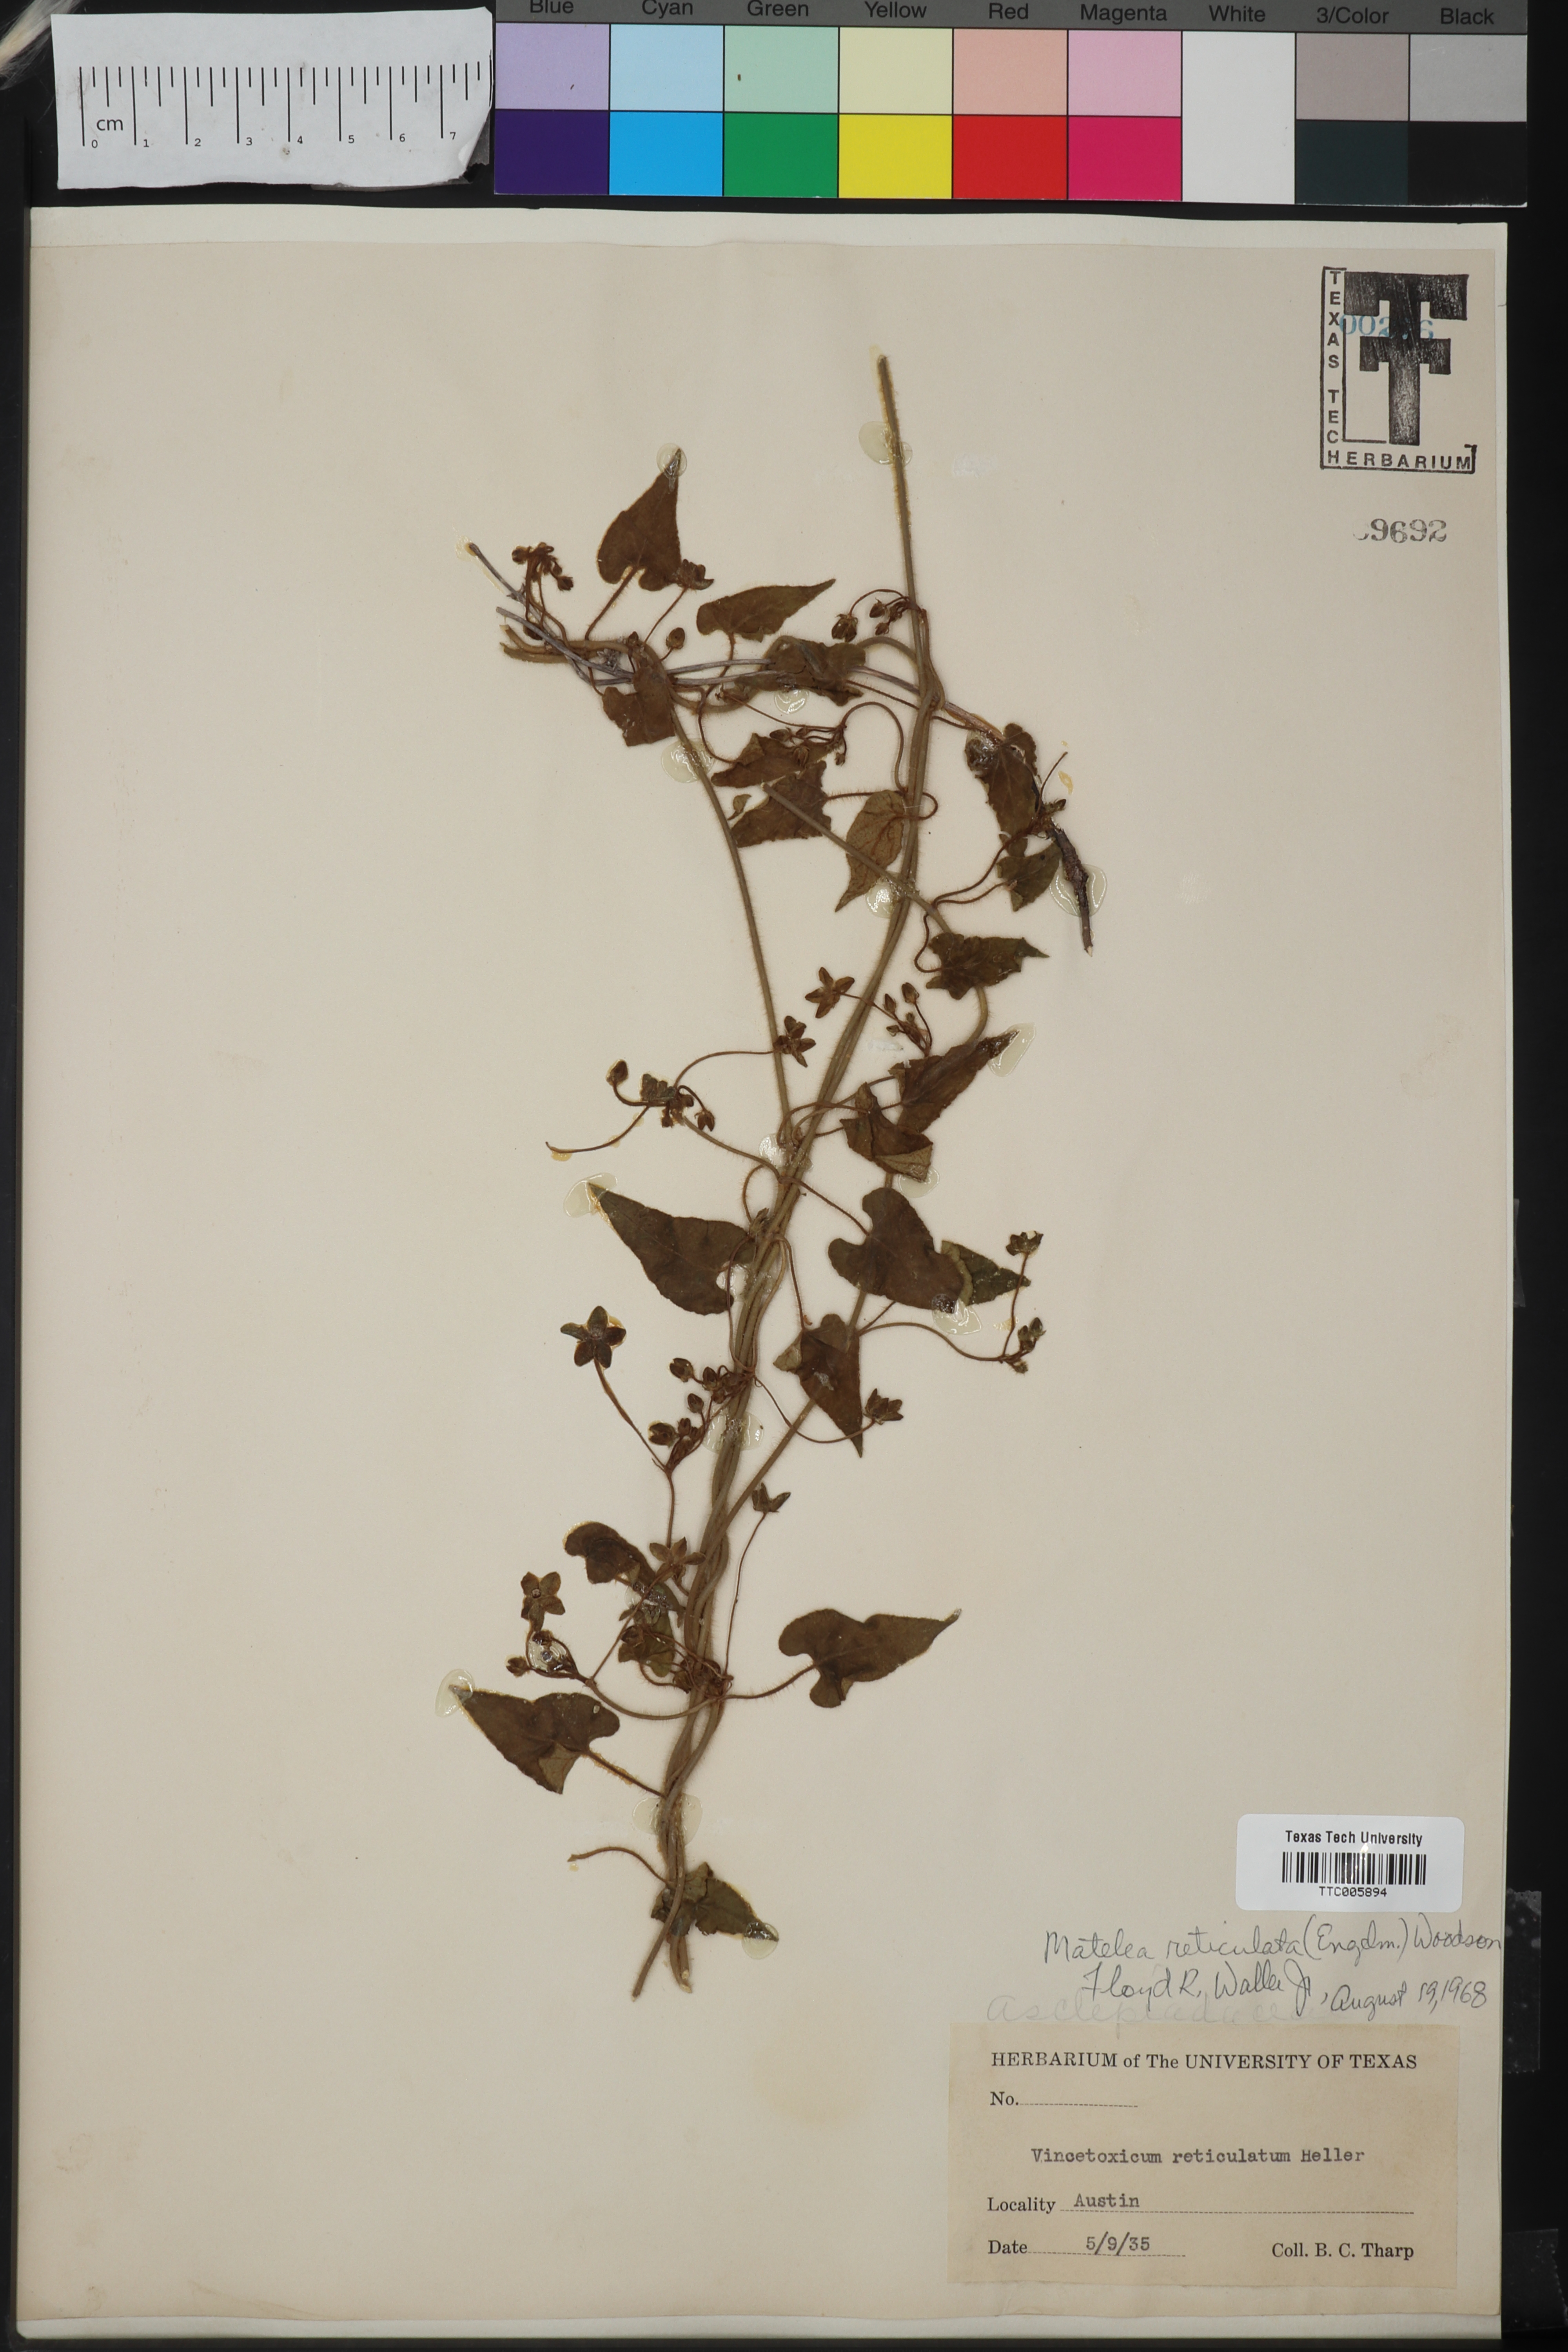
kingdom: Plantae
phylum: Tracheophyta
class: Magnoliopsida
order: Gentianales
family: Apocynaceae
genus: Dictyanthus
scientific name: Dictyanthus reticulatus
